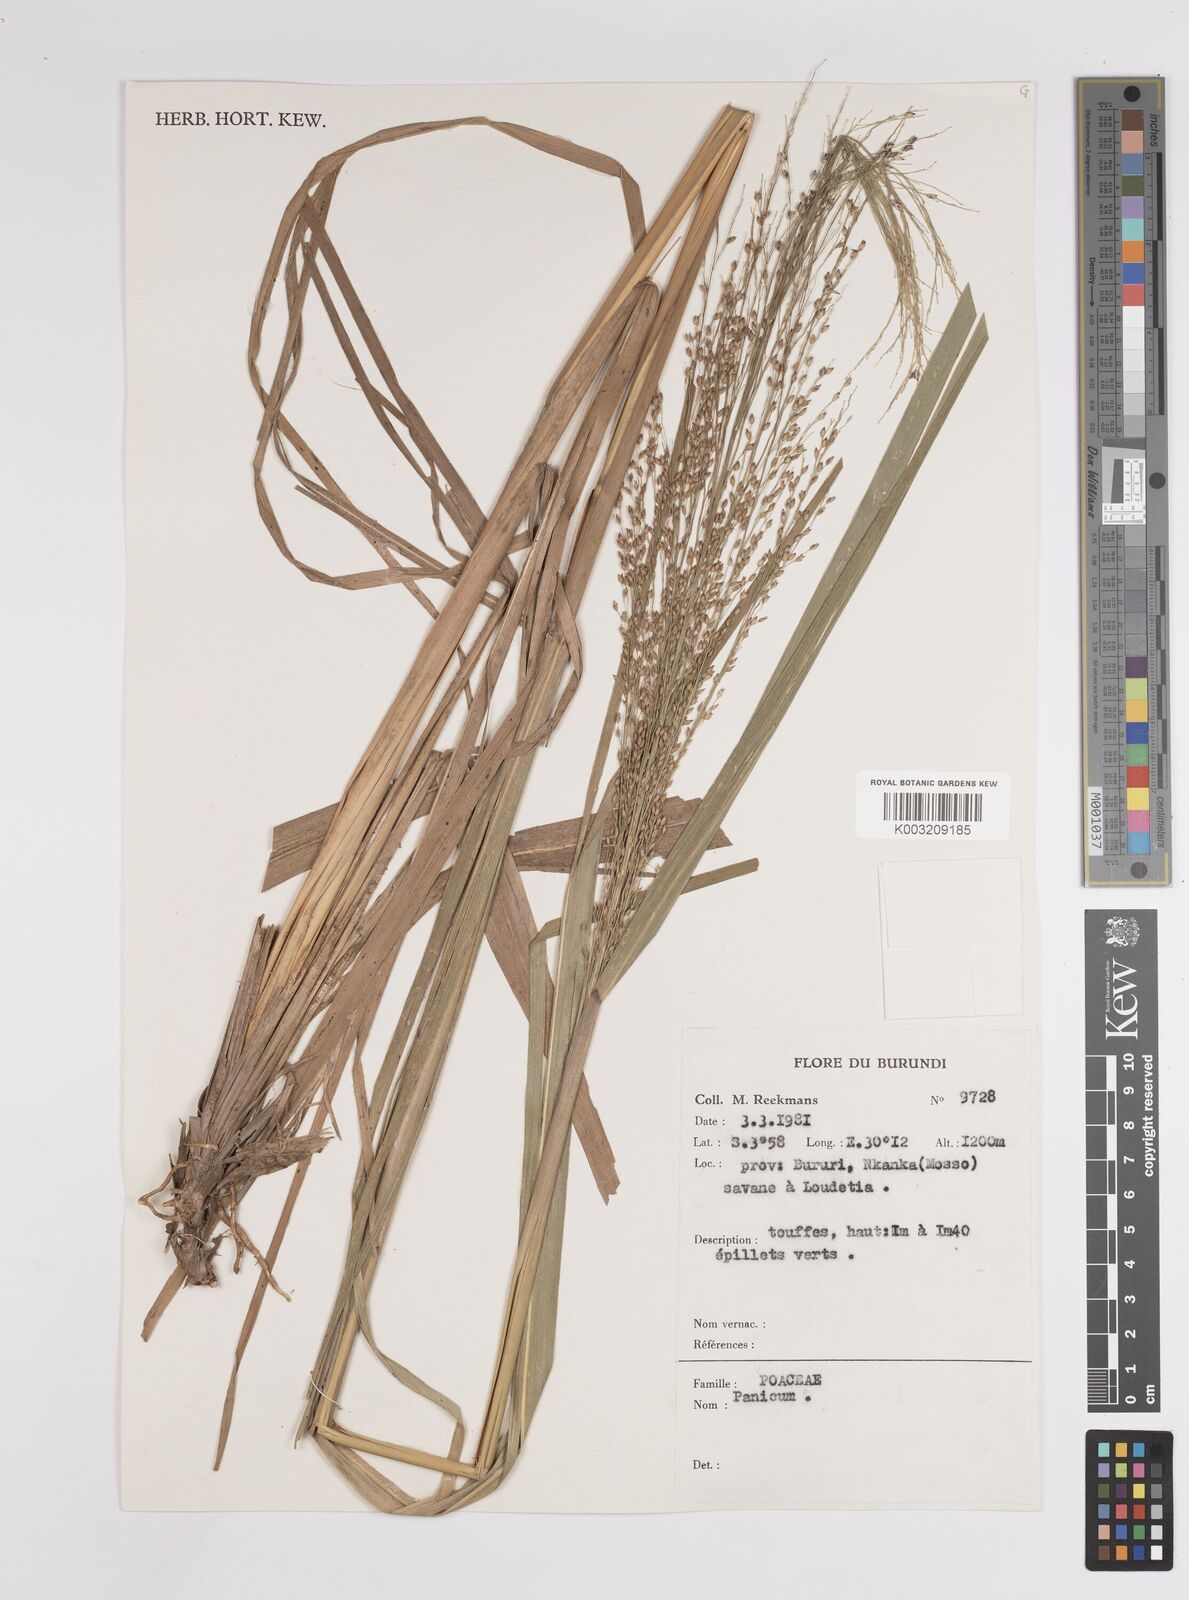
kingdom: Plantae
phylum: Tracheophyta
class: Liliopsida
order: Poales
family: Poaceae
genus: Panicum
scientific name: Panicum
